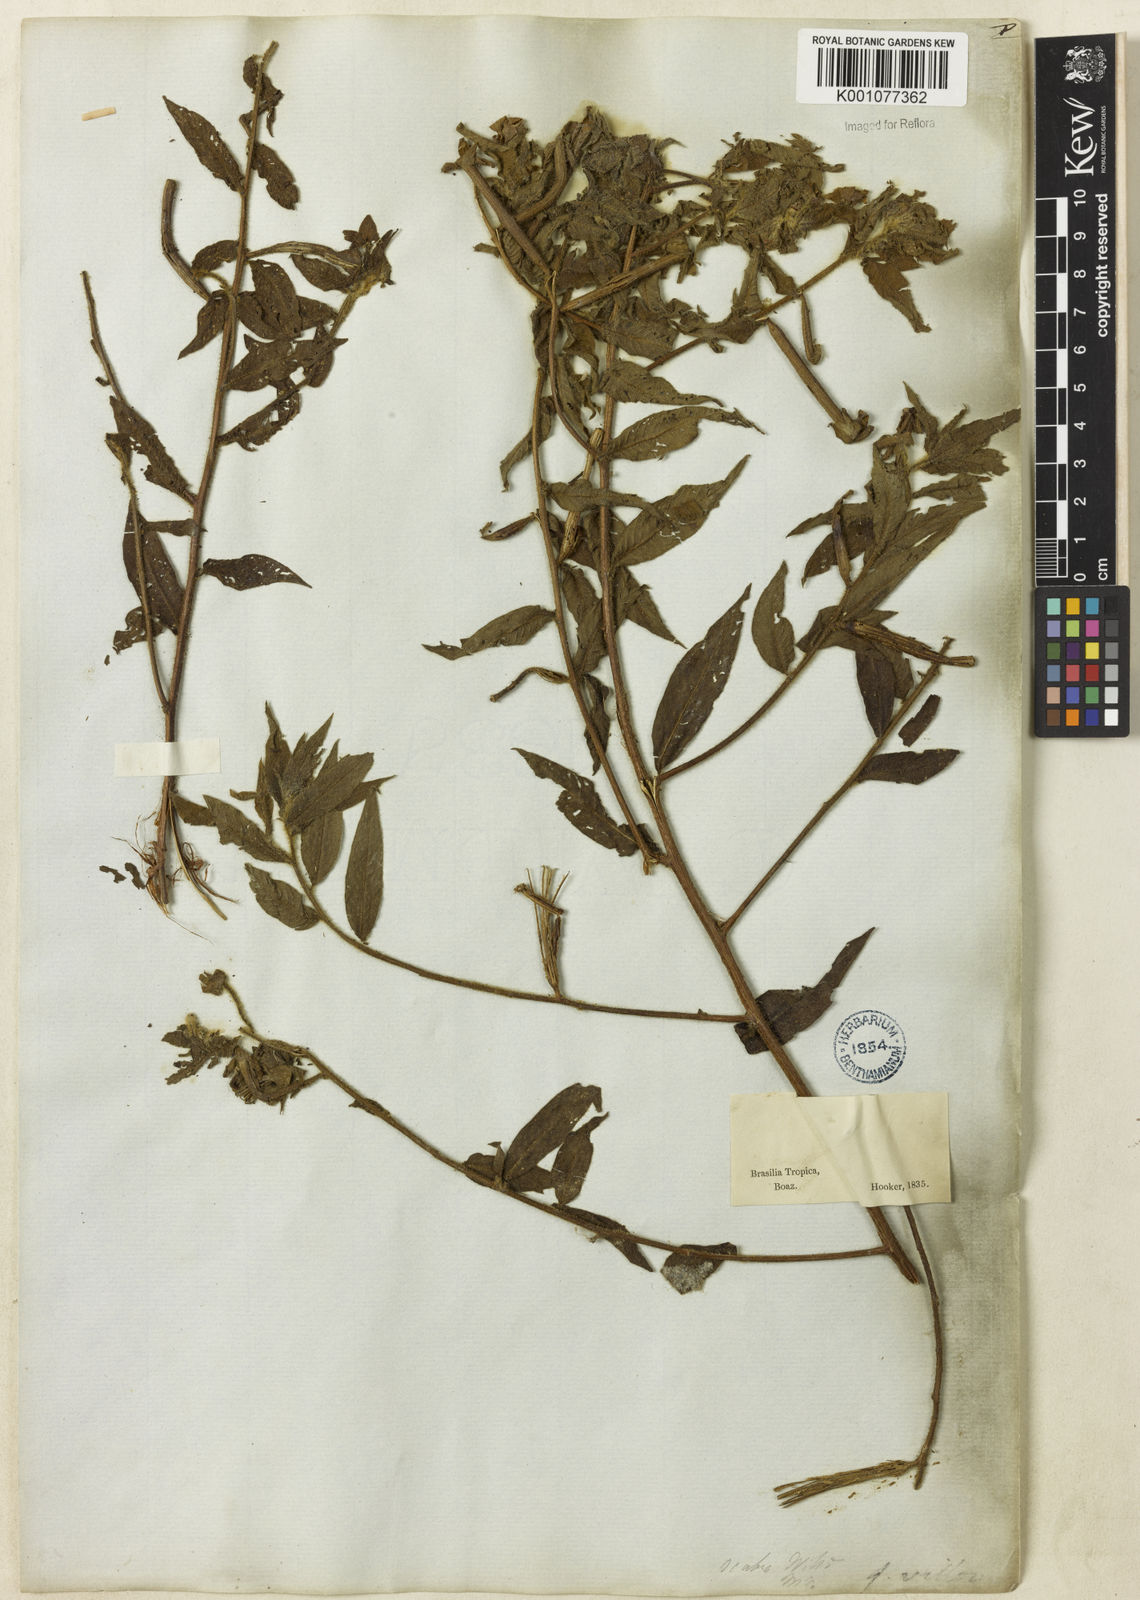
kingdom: Plantae
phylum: Tracheophyta
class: Magnoliopsida
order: Myrtales
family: Onagraceae
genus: Ludwigia
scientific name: Ludwigia octovalvis
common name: Water-primrose
